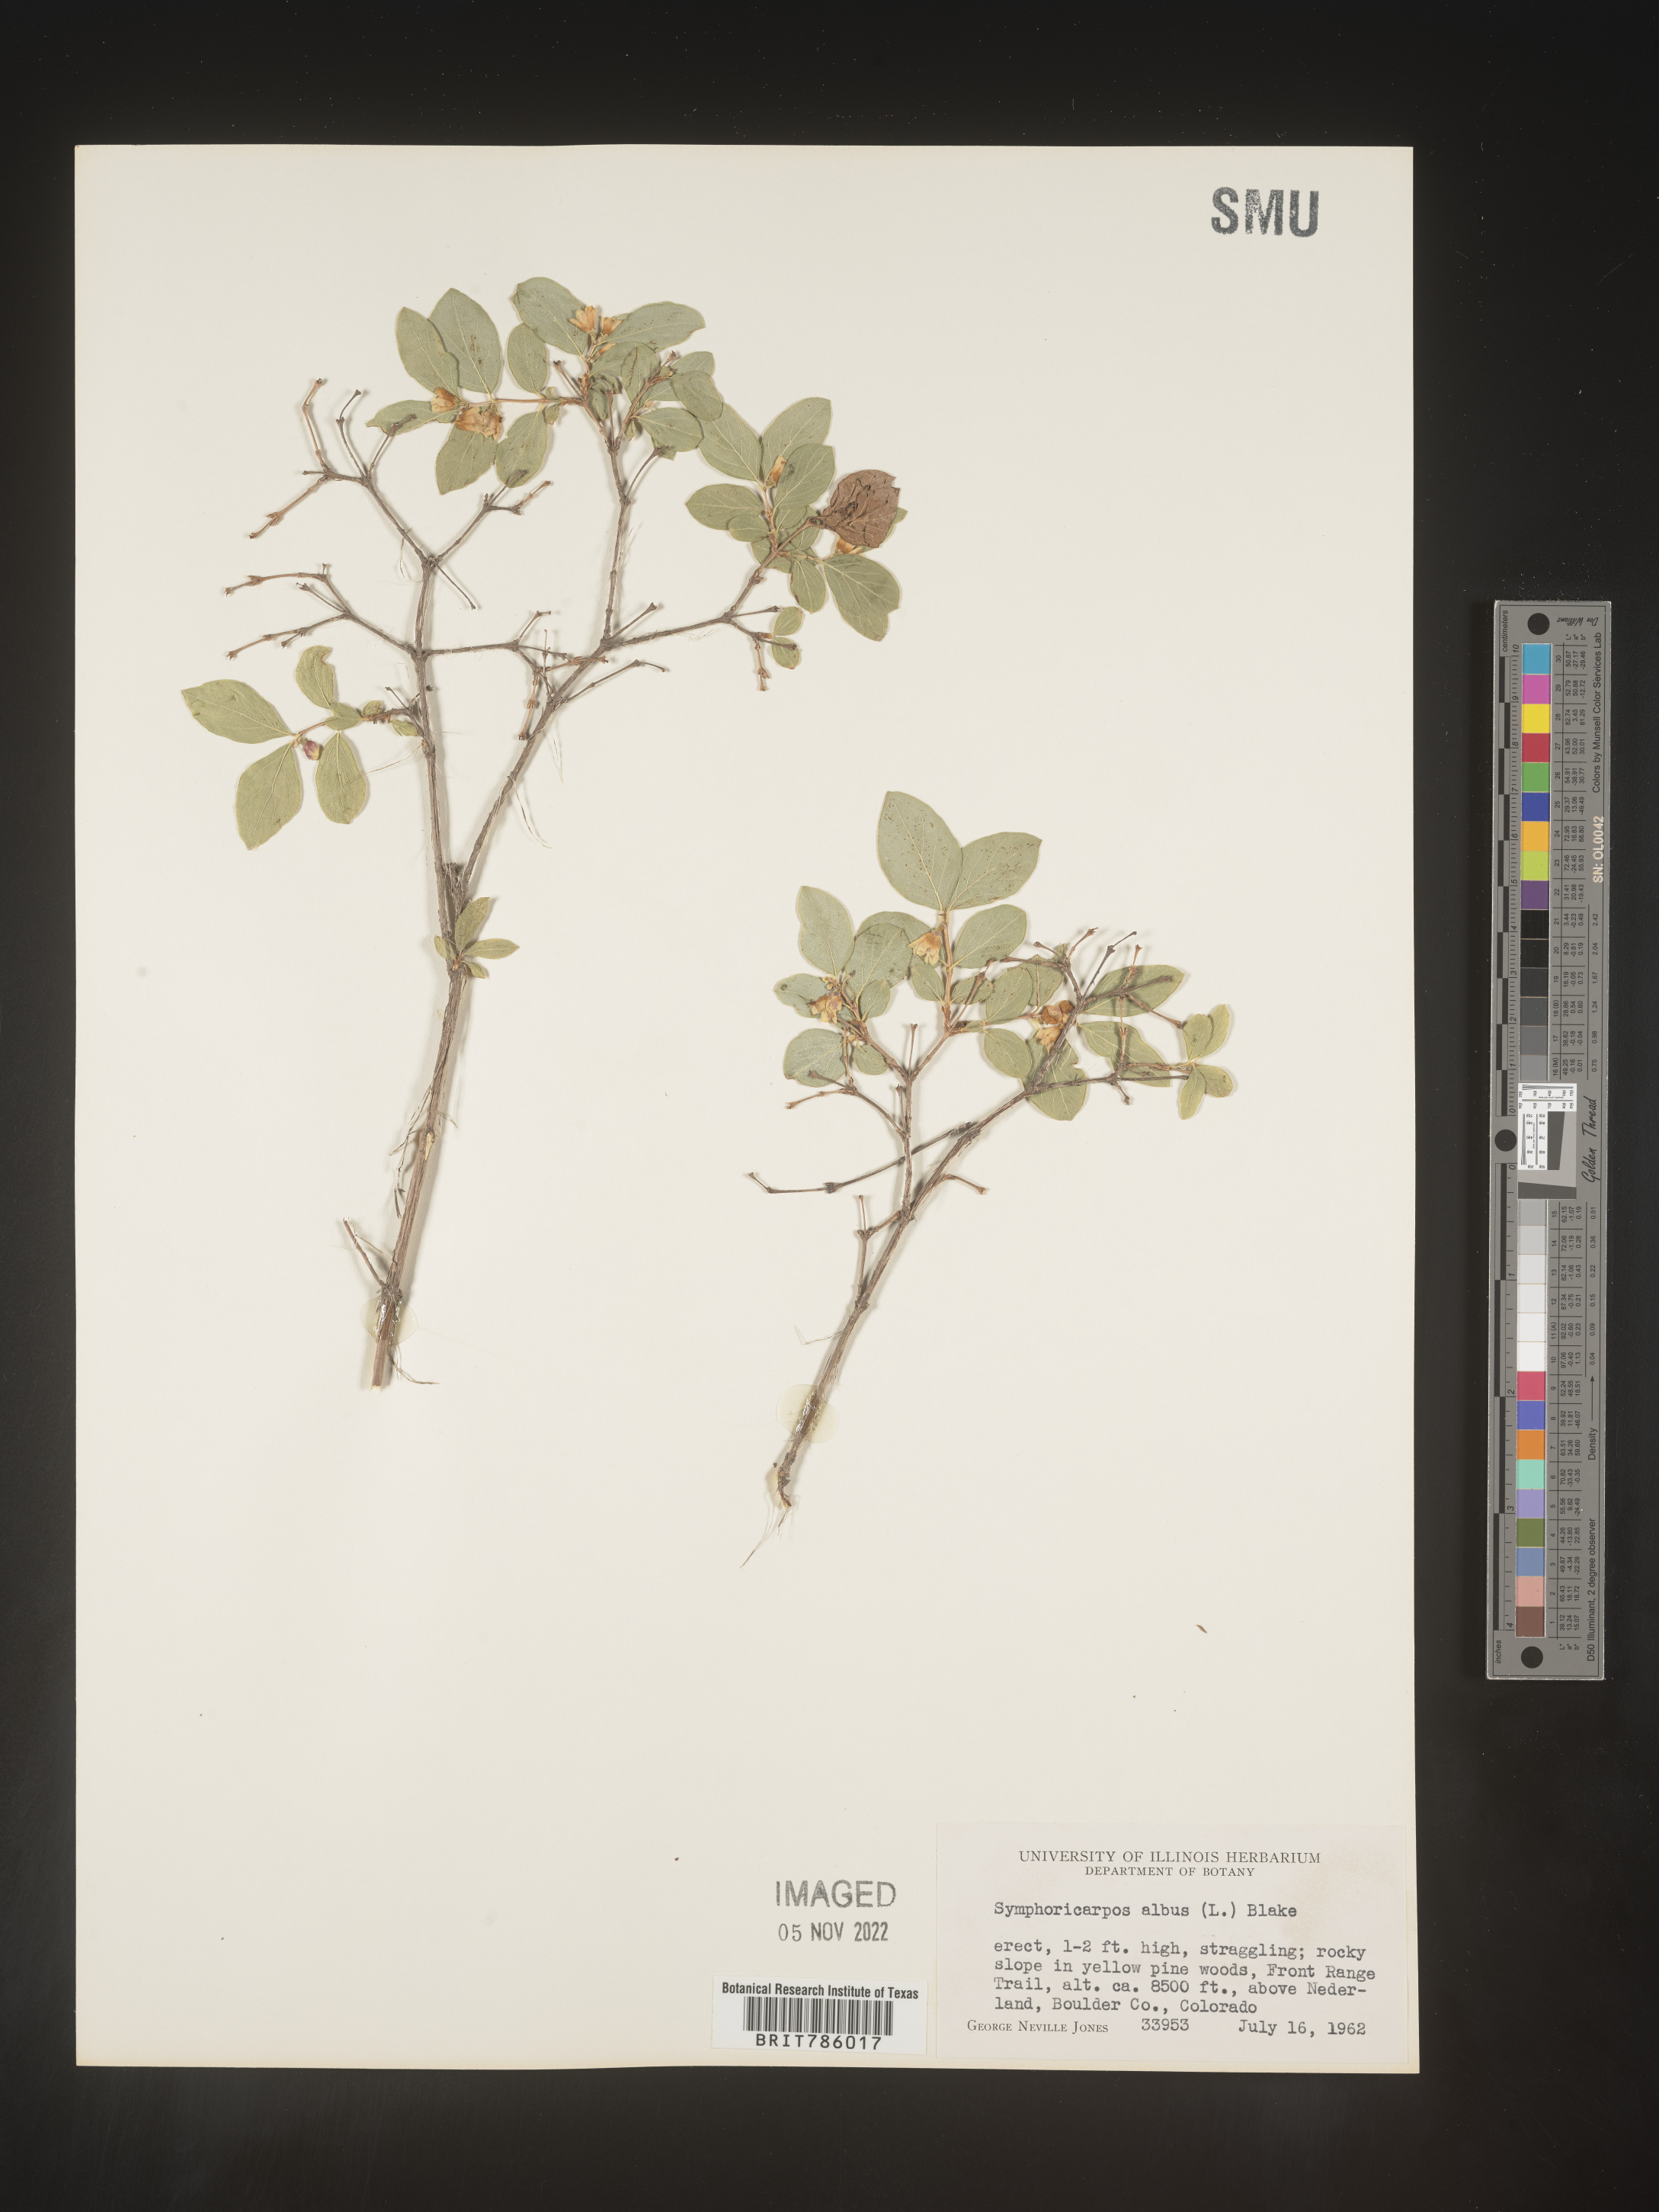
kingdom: Plantae
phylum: Tracheophyta
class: Magnoliopsida
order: Dipsacales
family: Caprifoliaceae
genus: Symphoricarpos
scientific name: Symphoricarpos albus
